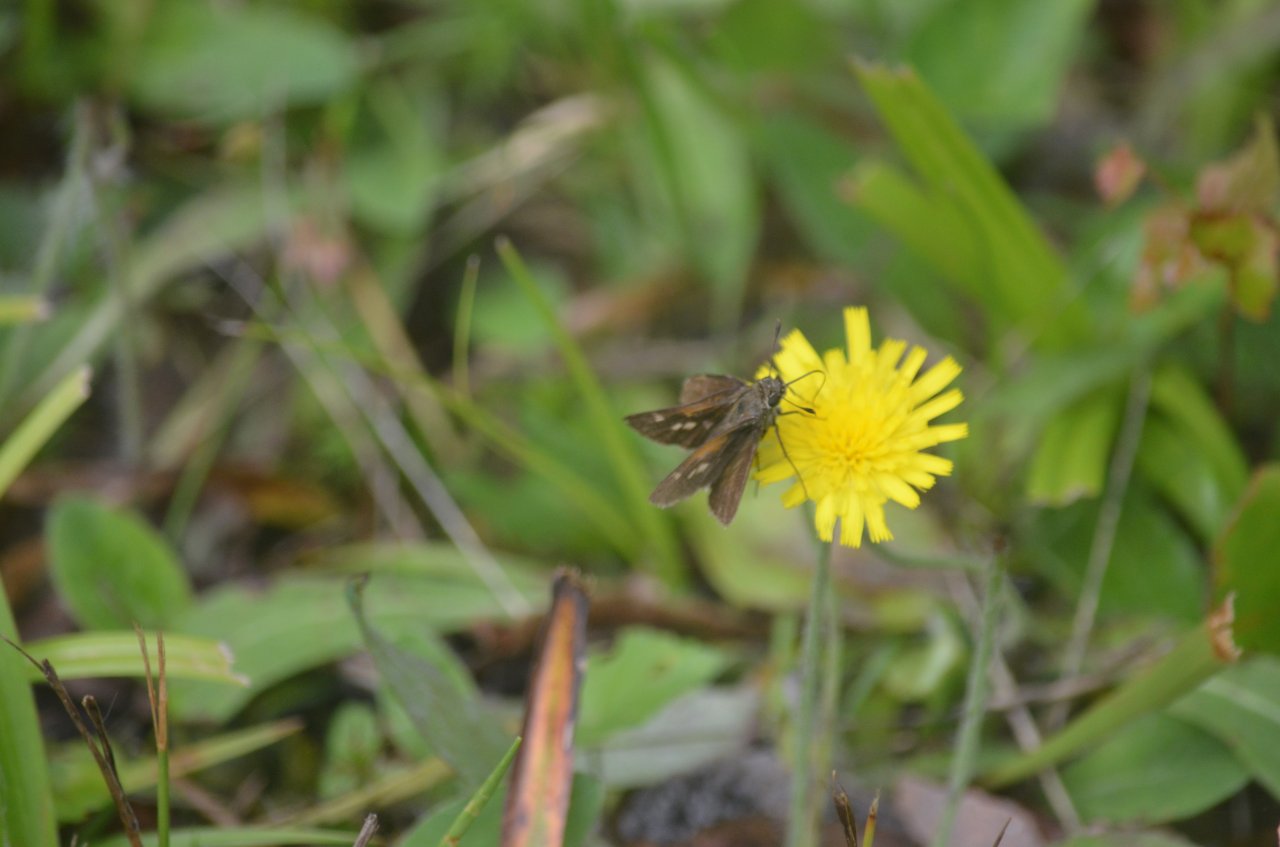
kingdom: Animalia
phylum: Arthropoda
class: Insecta
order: Lepidoptera
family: Hesperiidae
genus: Polites
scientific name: Polites themistocles
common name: Tawny-edged Skipper
